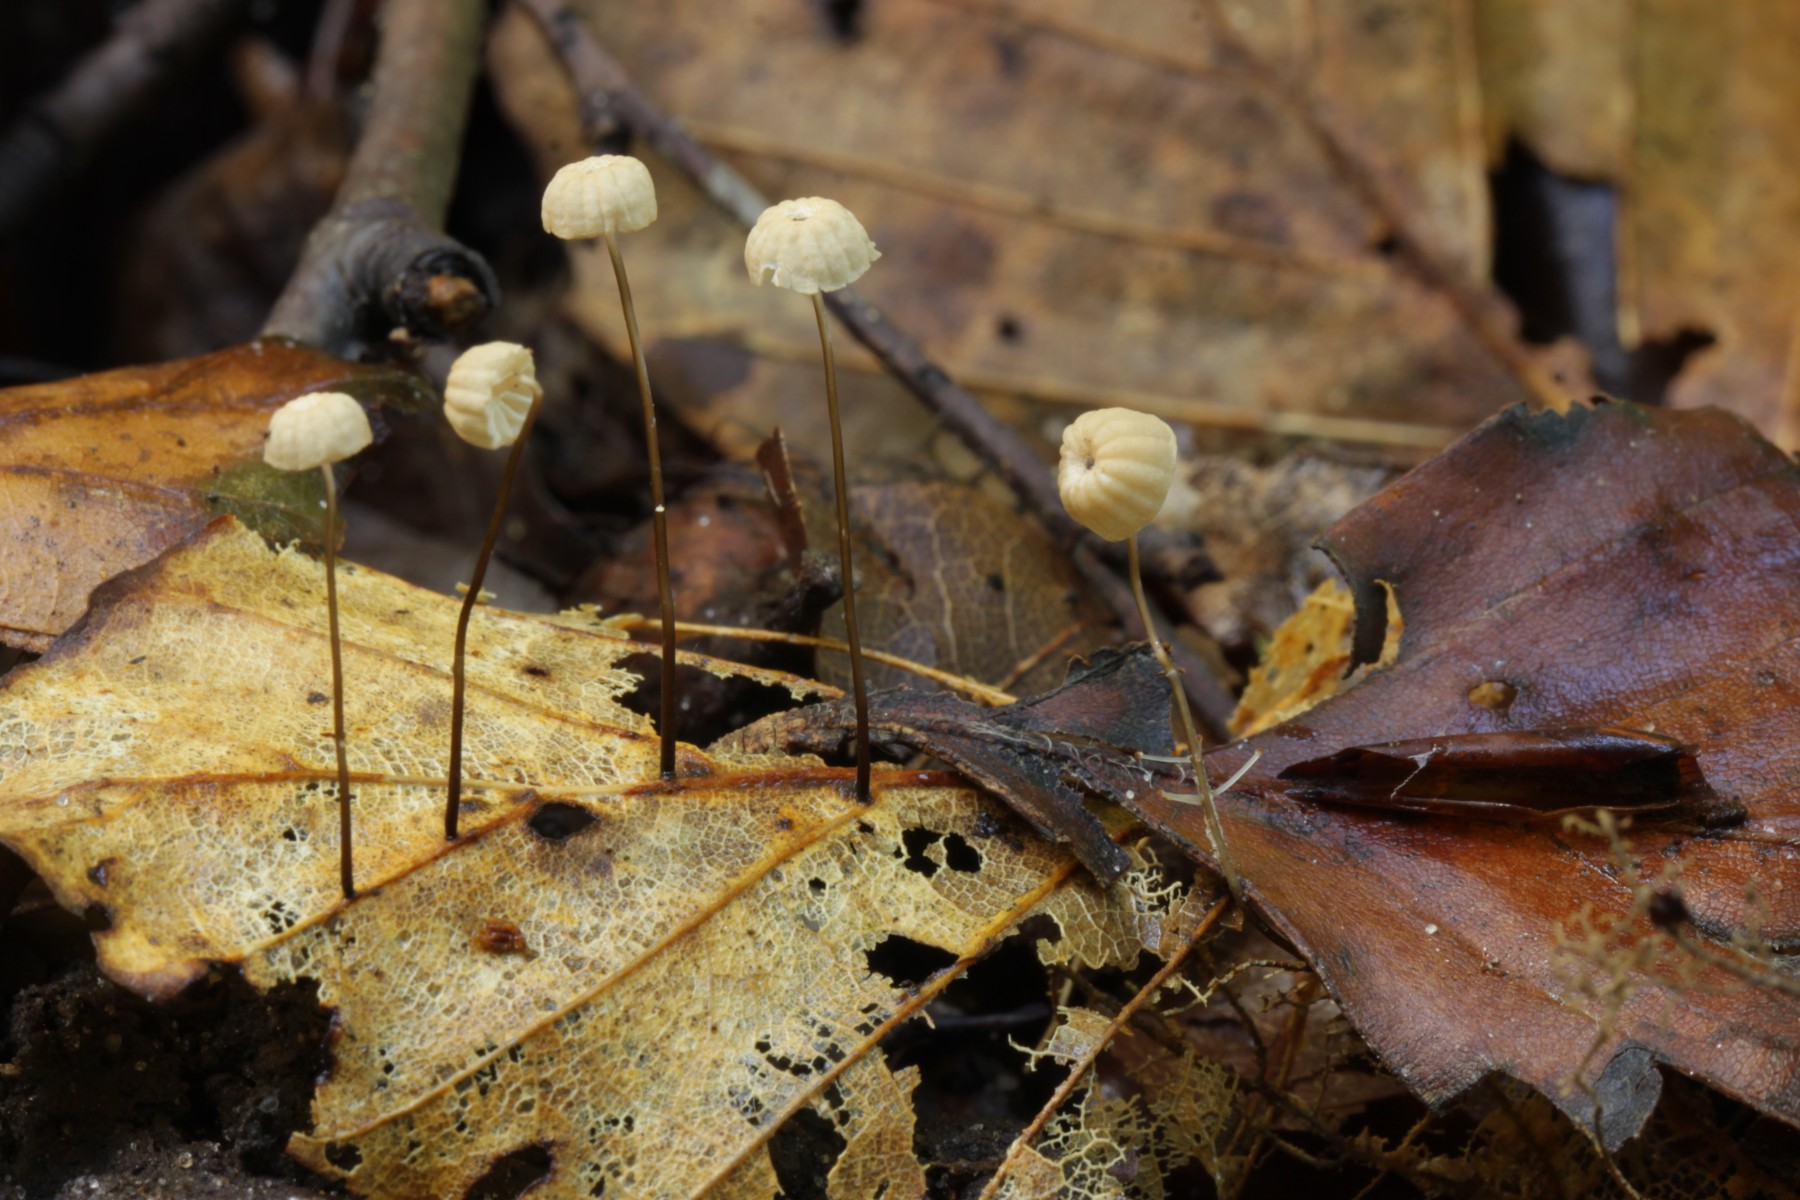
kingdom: Fungi
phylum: Basidiomycota
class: Agaricomycetes
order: Agaricales
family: Marasmiaceae
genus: Marasmius
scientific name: Marasmius bulliardii
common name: furet bruskhat
